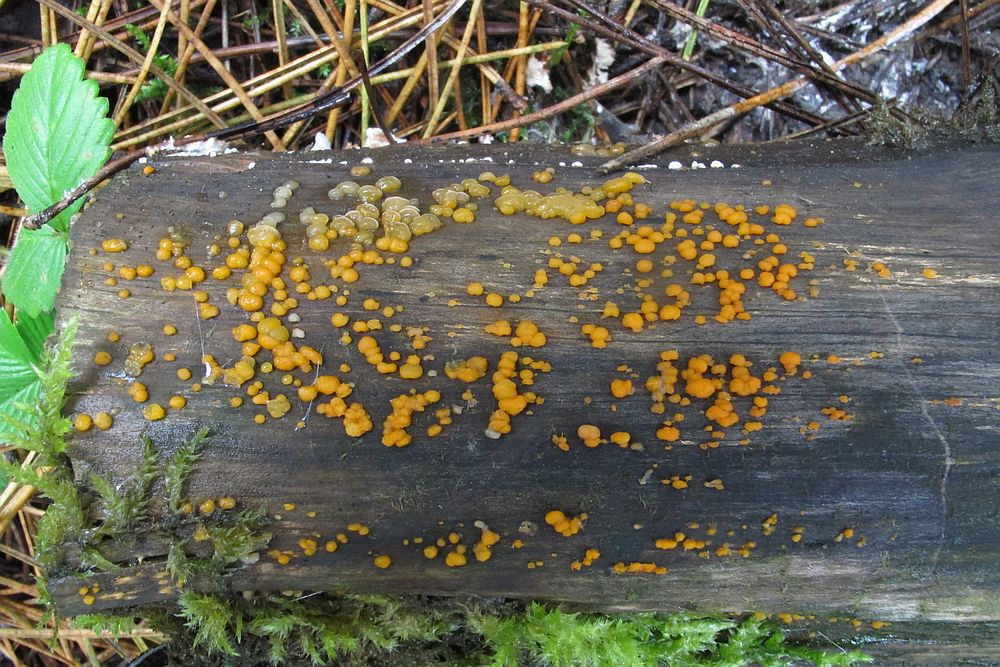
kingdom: Fungi
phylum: Basidiomycota
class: Dacrymycetes
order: Dacrymycetales
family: Dacrymycetaceae
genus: Dacrymyces
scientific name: Dacrymyces stillatus
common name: almindelig tåresvamp
